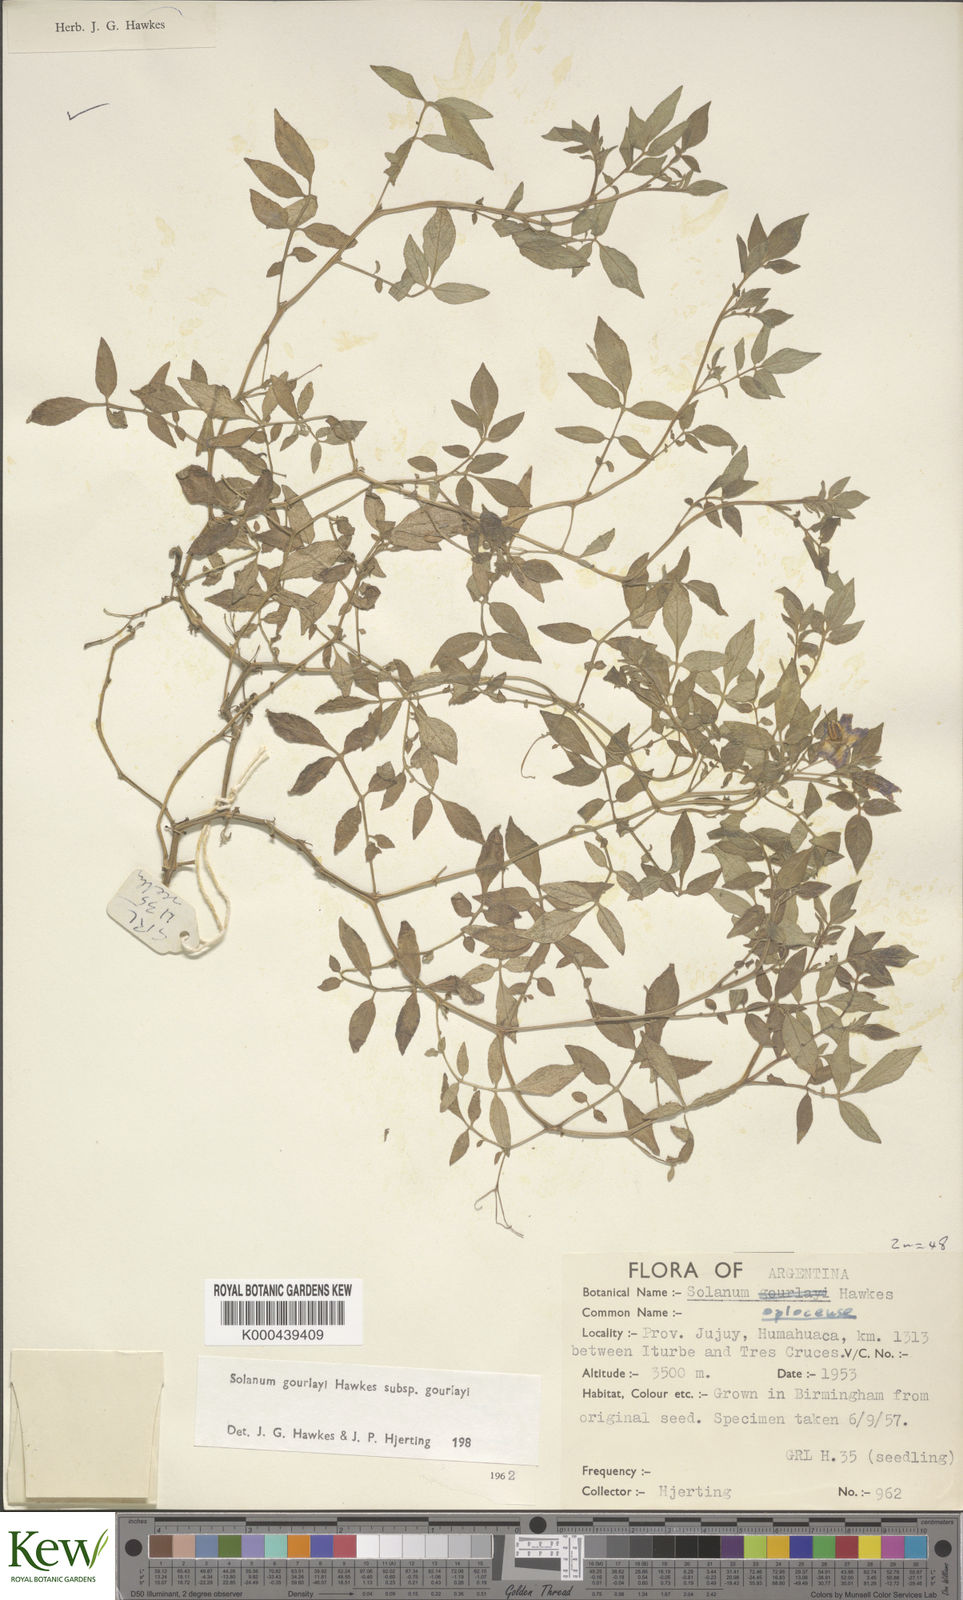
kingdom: Plantae
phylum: Tracheophyta
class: Magnoliopsida
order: Solanales
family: Solanaceae
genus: Solanum
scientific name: Solanum brevicaule
